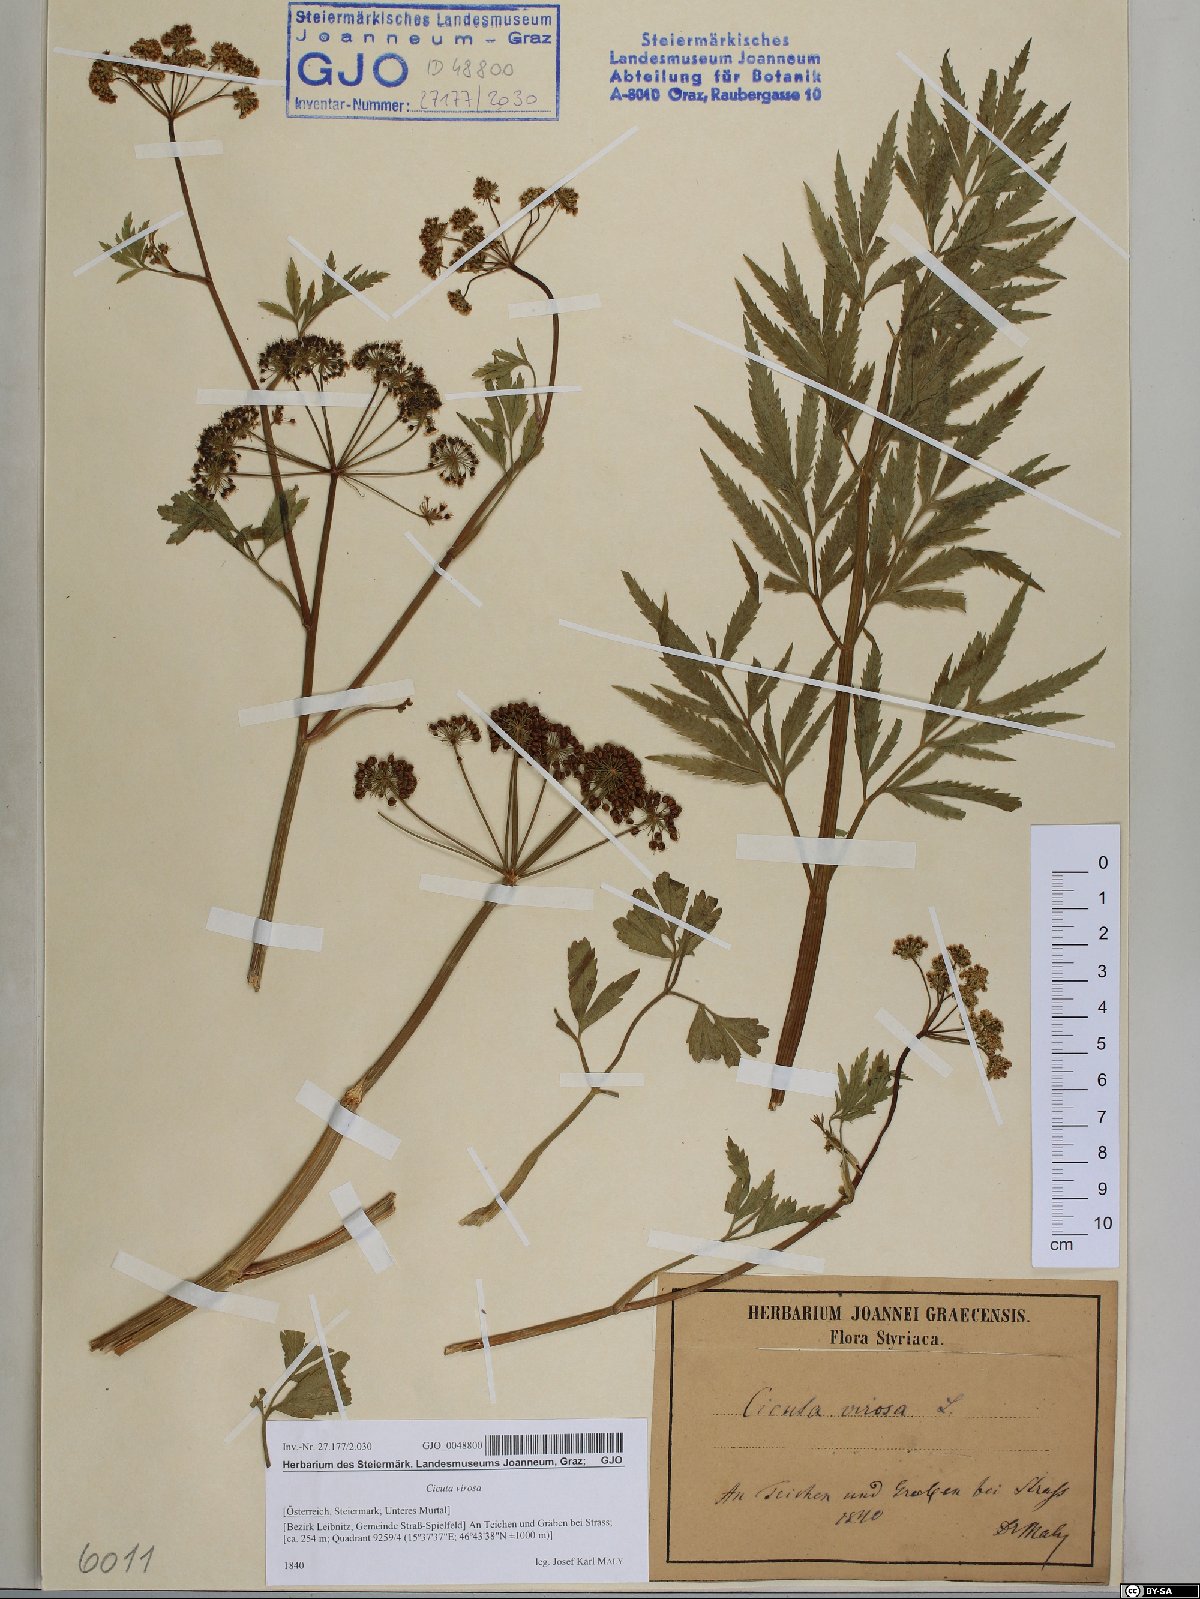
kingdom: Plantae
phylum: Tracheophyta
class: Magnoliopsida
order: Apiales
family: Apiaceae
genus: Cicuta
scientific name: Cicuta virosa
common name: Cowbane
